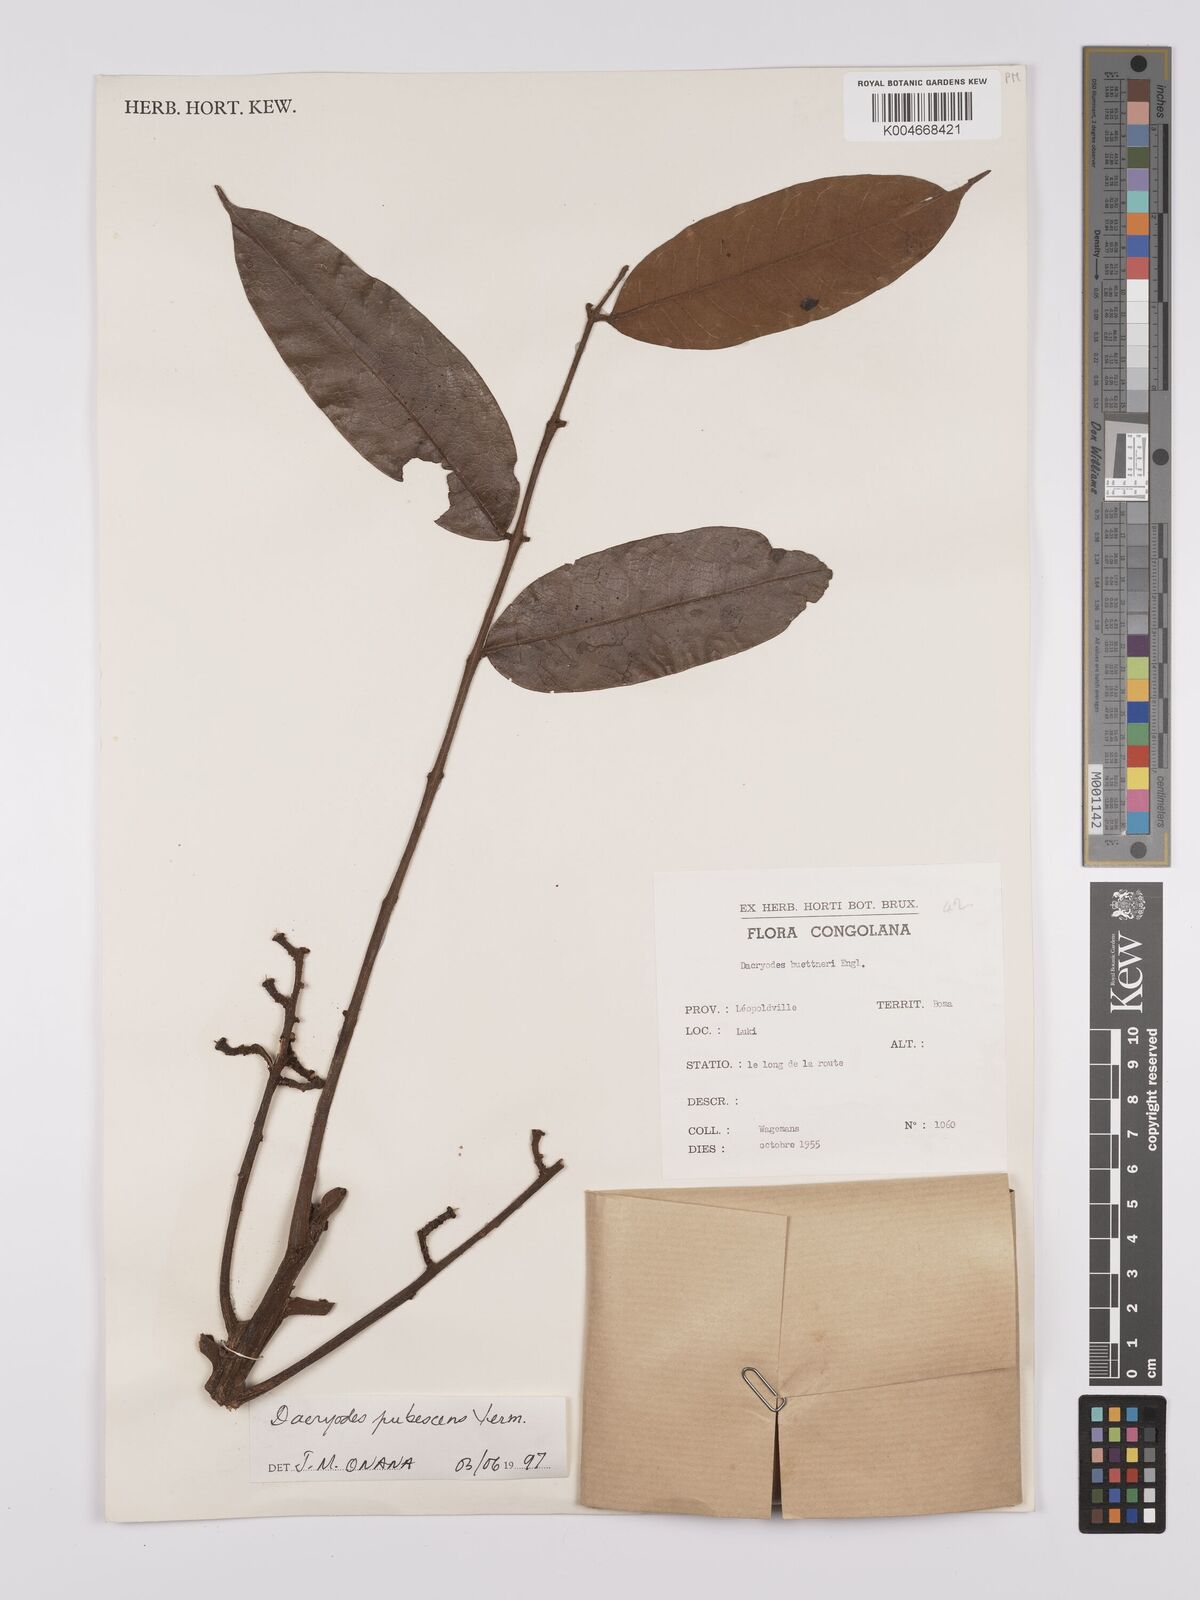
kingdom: Plantae
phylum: Tracheophyta
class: Magnoliopsida
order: Sapindales
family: Burseraceae
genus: Pachylobus
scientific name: Pachylobus pubescens
